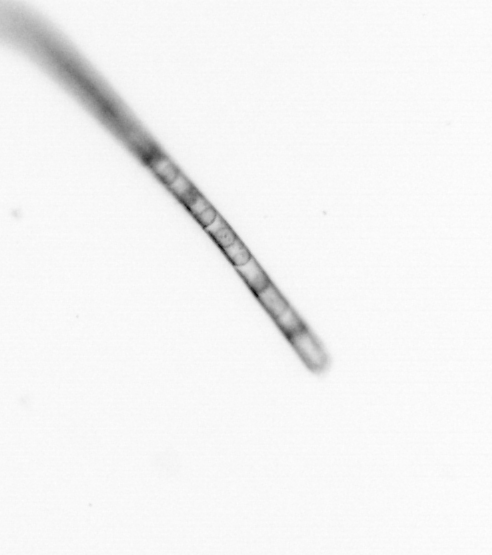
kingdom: Chromista
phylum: Ochrophyta
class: Bacillariophyceae
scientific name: Bacillariophyceae
